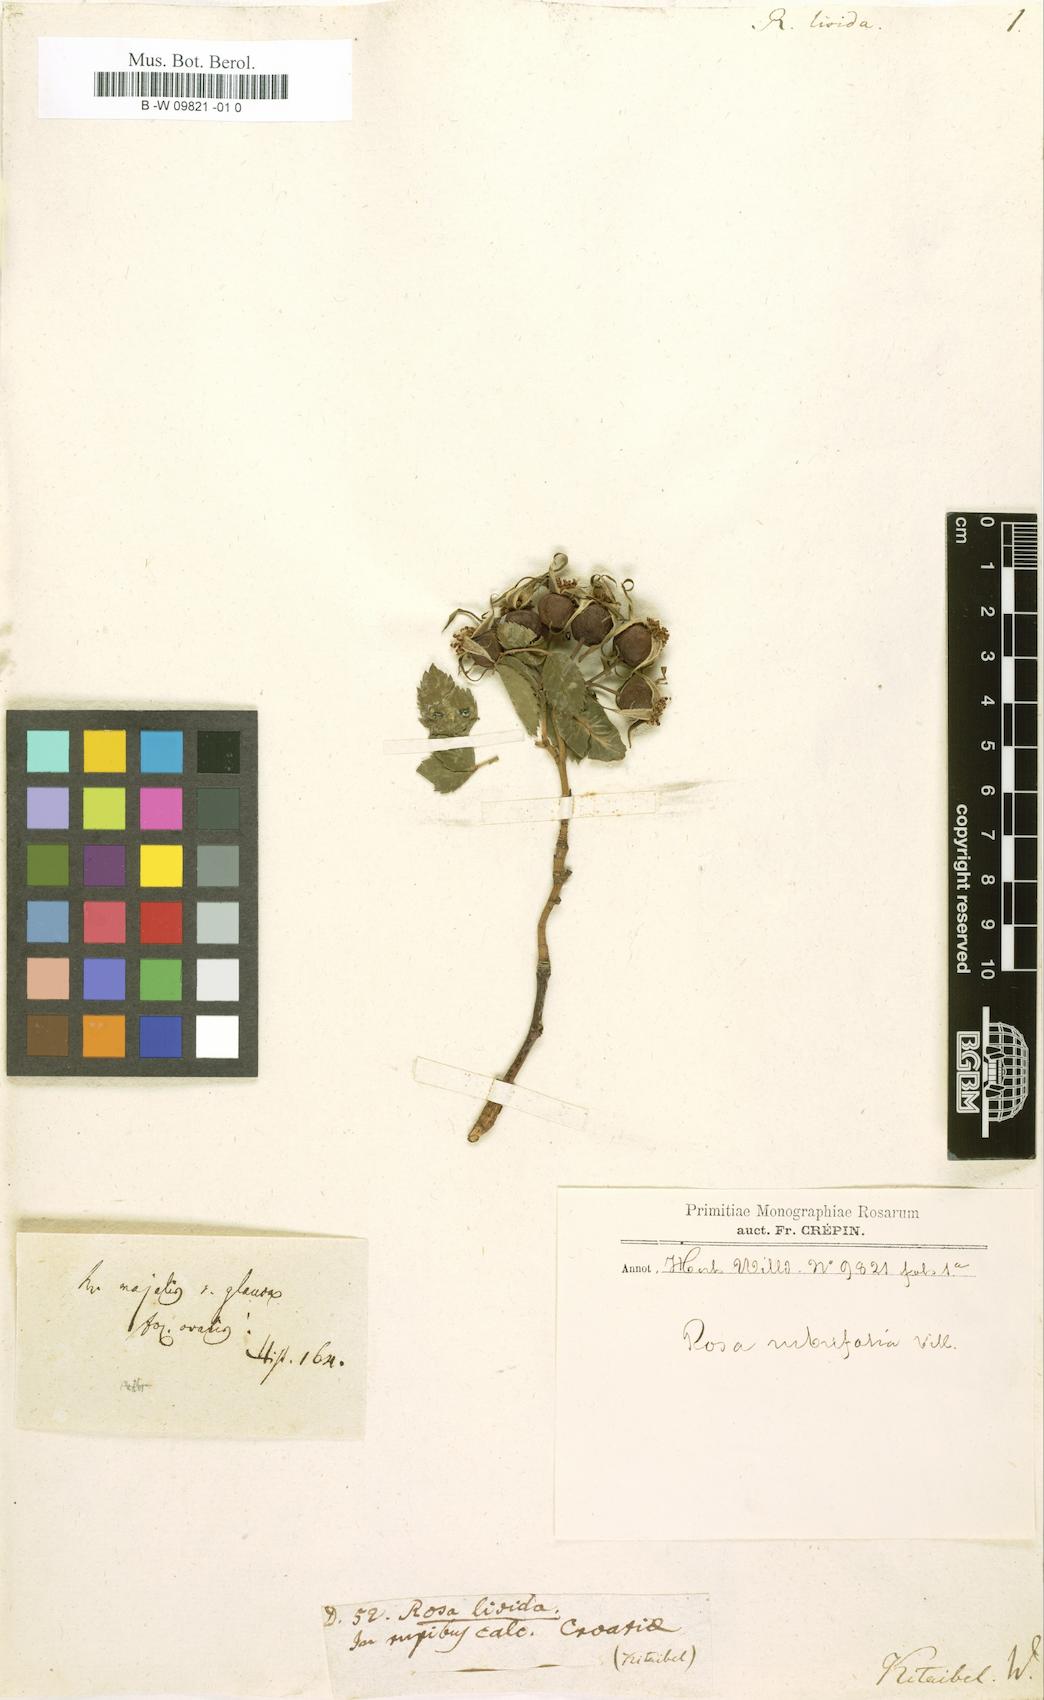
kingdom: Plantae
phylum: Tracheophyta
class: Magnoliopsida
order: Rosales
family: Rosaceae
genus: Rosa
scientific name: Rosa glauca
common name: Redleaf rose
